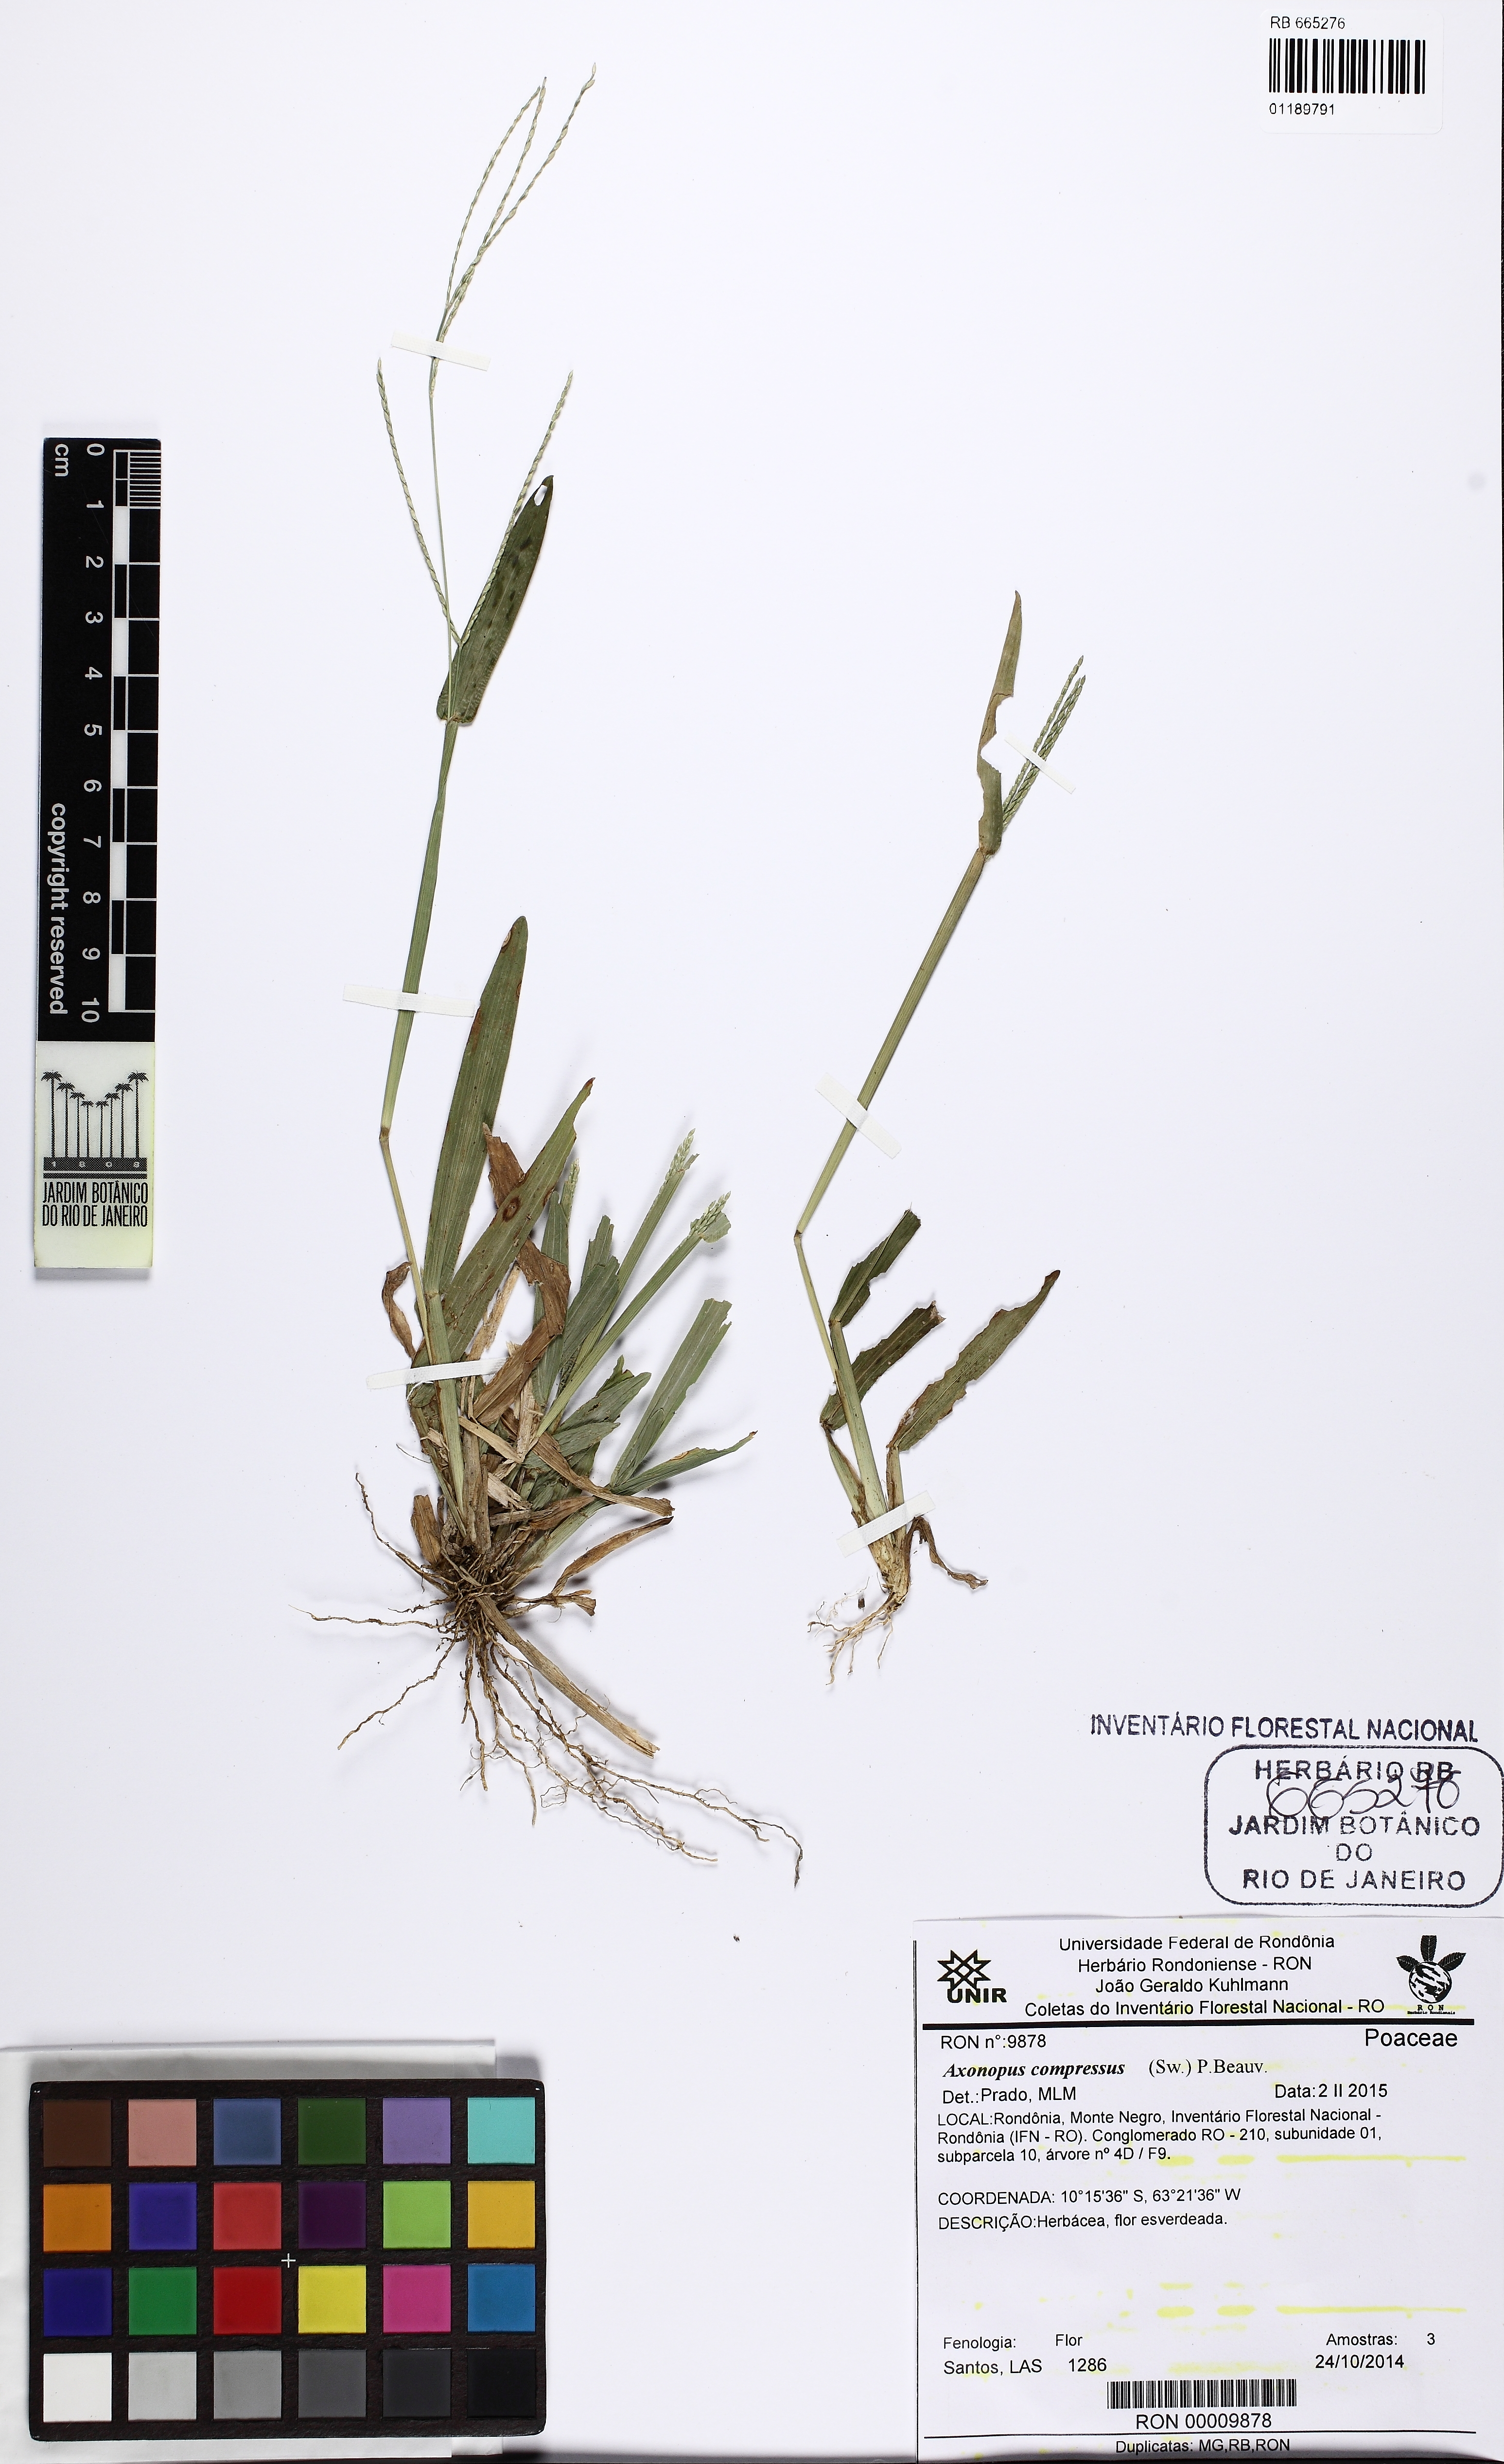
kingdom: Plantae
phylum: Tracheophyta
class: Liliopsida
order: Poales
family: Poaceae
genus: Axonopus
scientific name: Axonopus compressus
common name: American carpet grass
